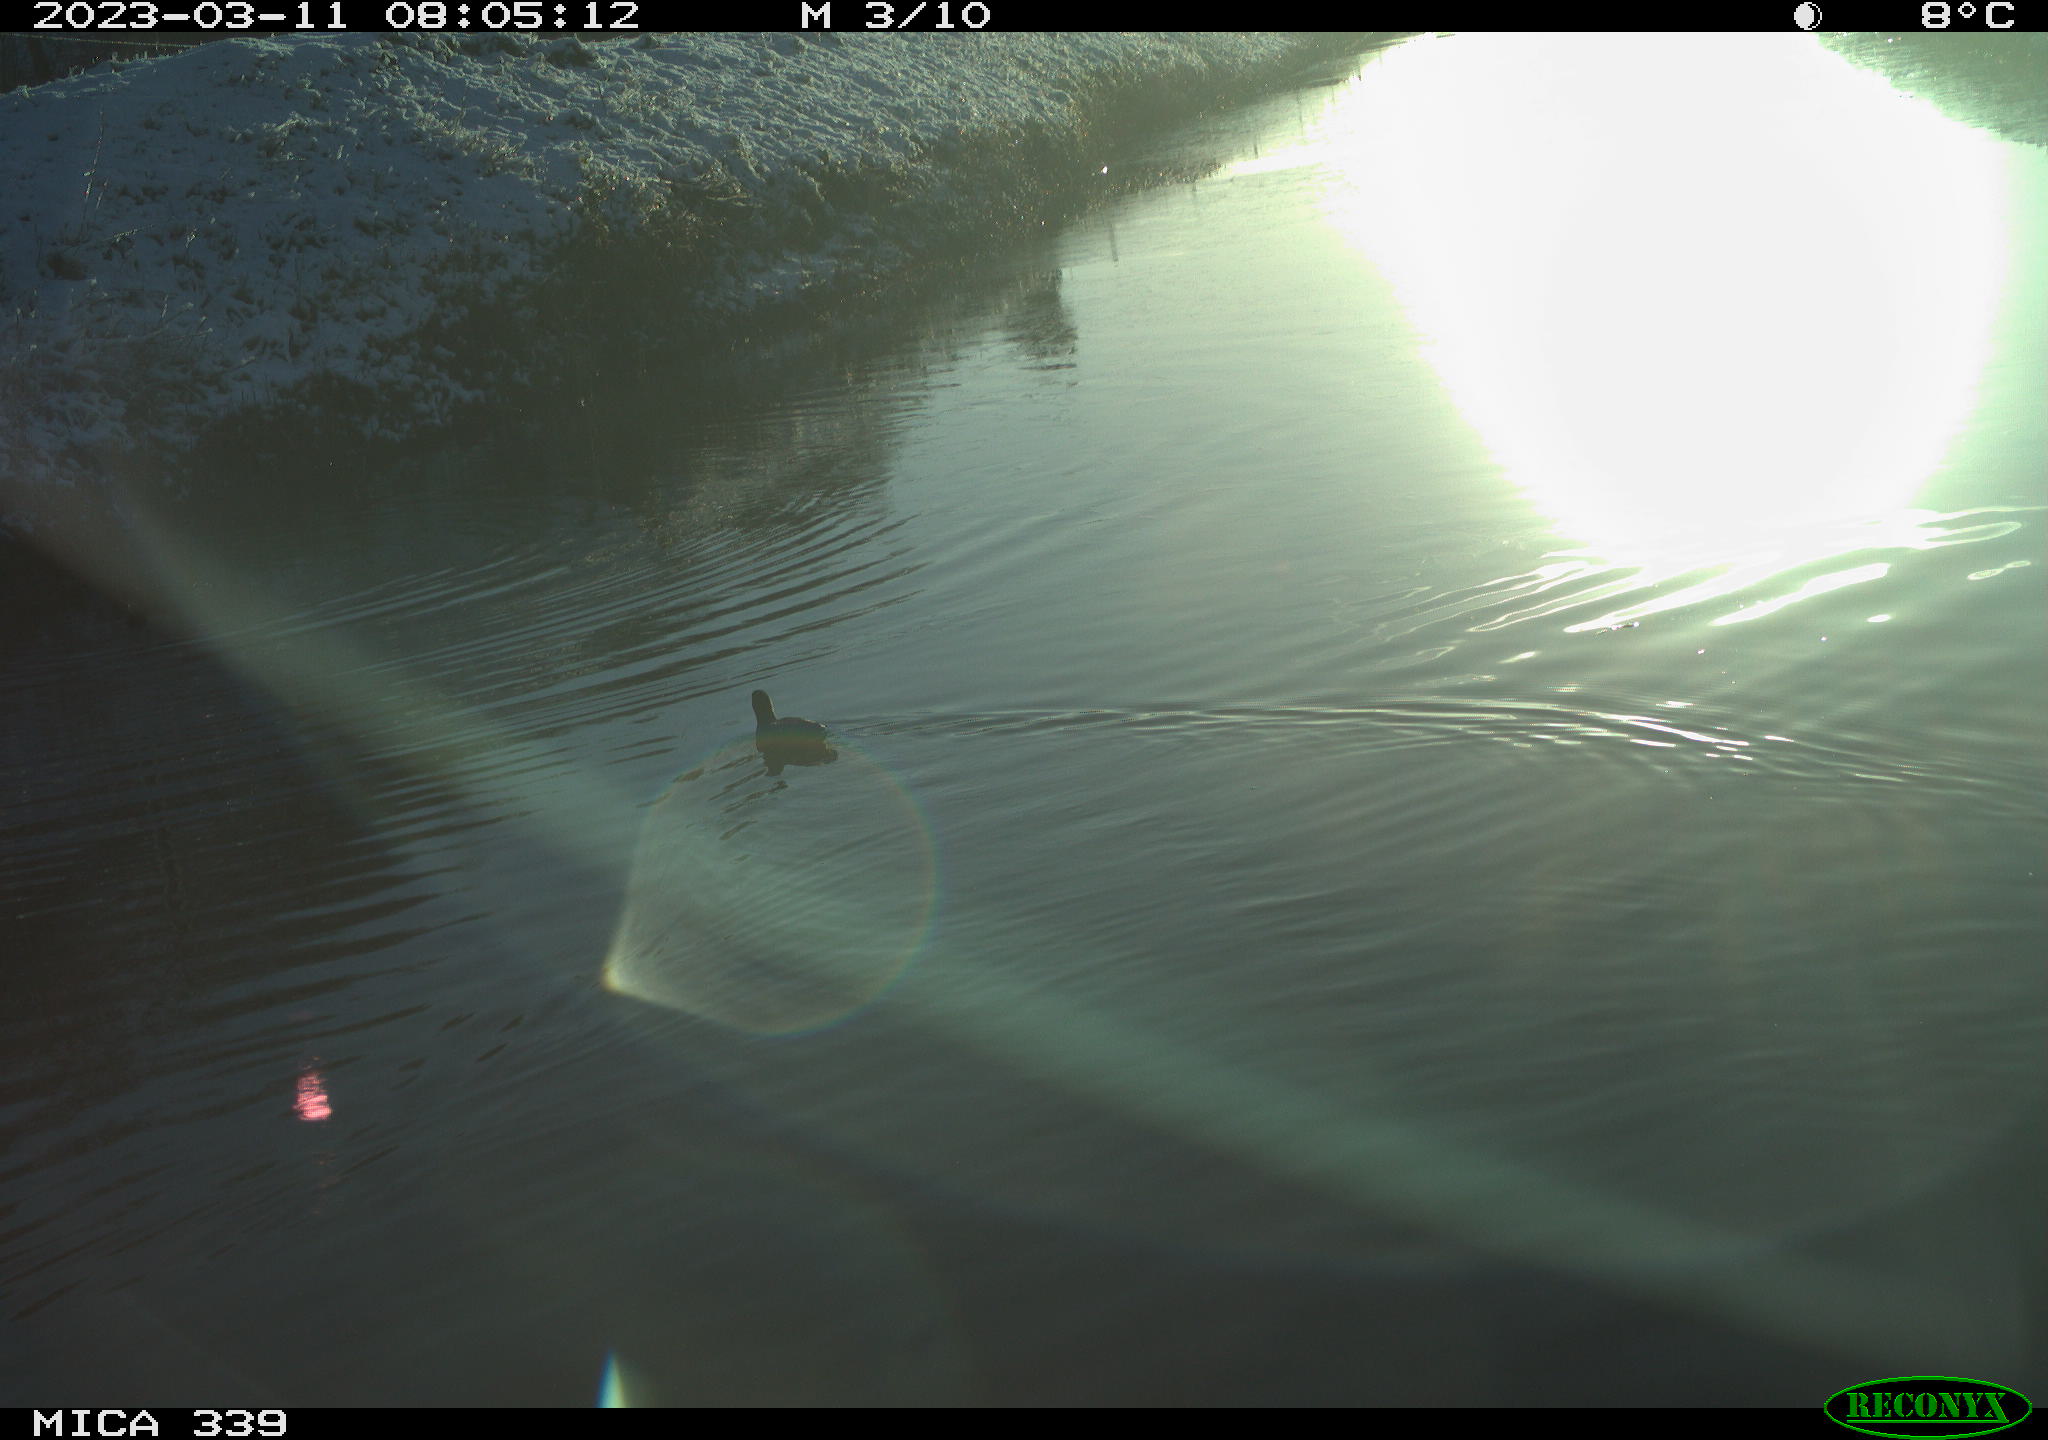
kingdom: Animalia
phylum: Chordata
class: Aves
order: Gruiformes
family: Rallidae
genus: Gallinula
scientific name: Gallinula chloropus
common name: Common moorhen
